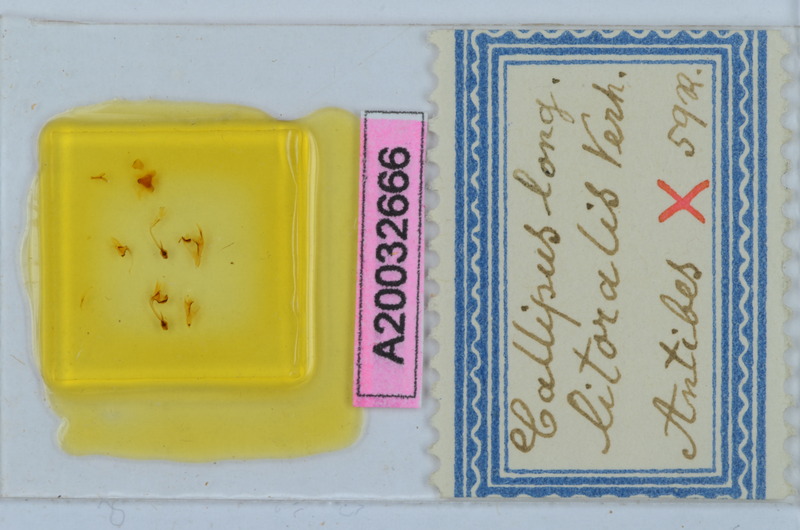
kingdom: Animalia
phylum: Arthropoda
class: Diplopoda
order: Callipodida
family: Callipodidae
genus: Callipus
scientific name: Callipus foetidissimus
